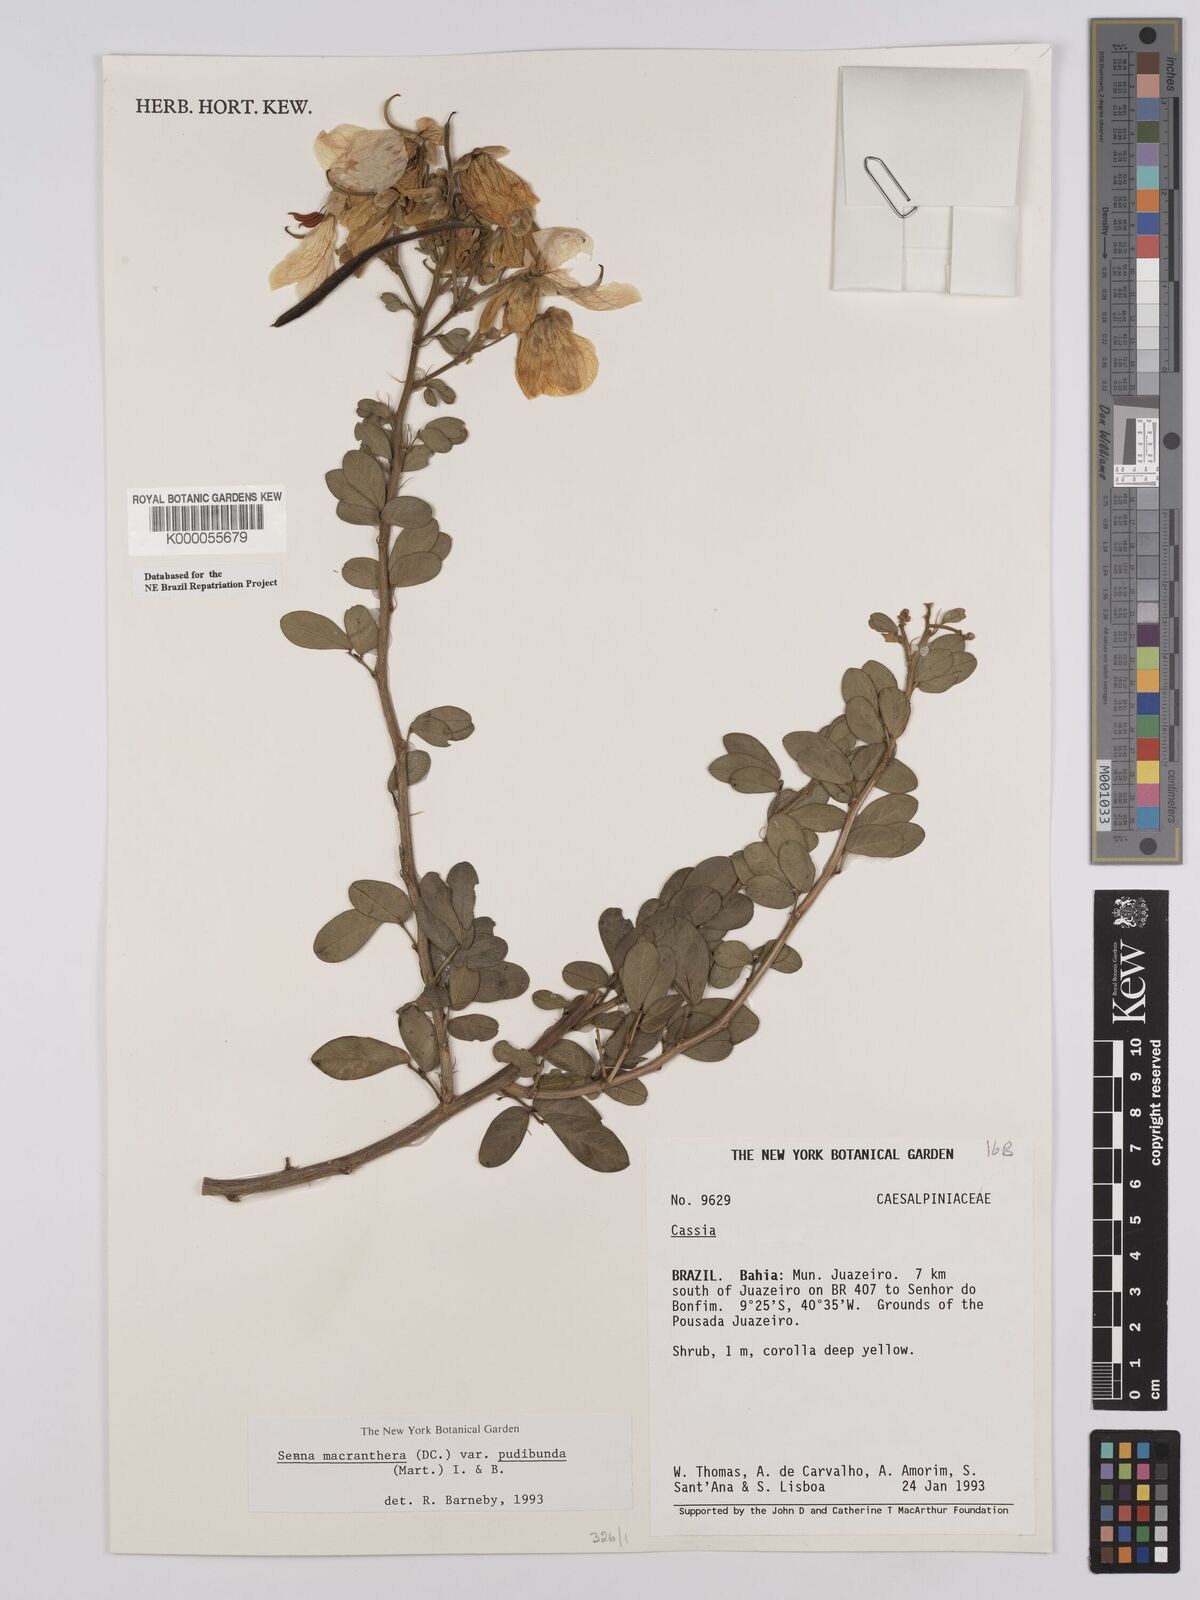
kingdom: Plantae
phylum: Tracheophyta
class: Magnoliopsida
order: Fabales
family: Fabaceae
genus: Senna
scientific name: Senna macranthera
